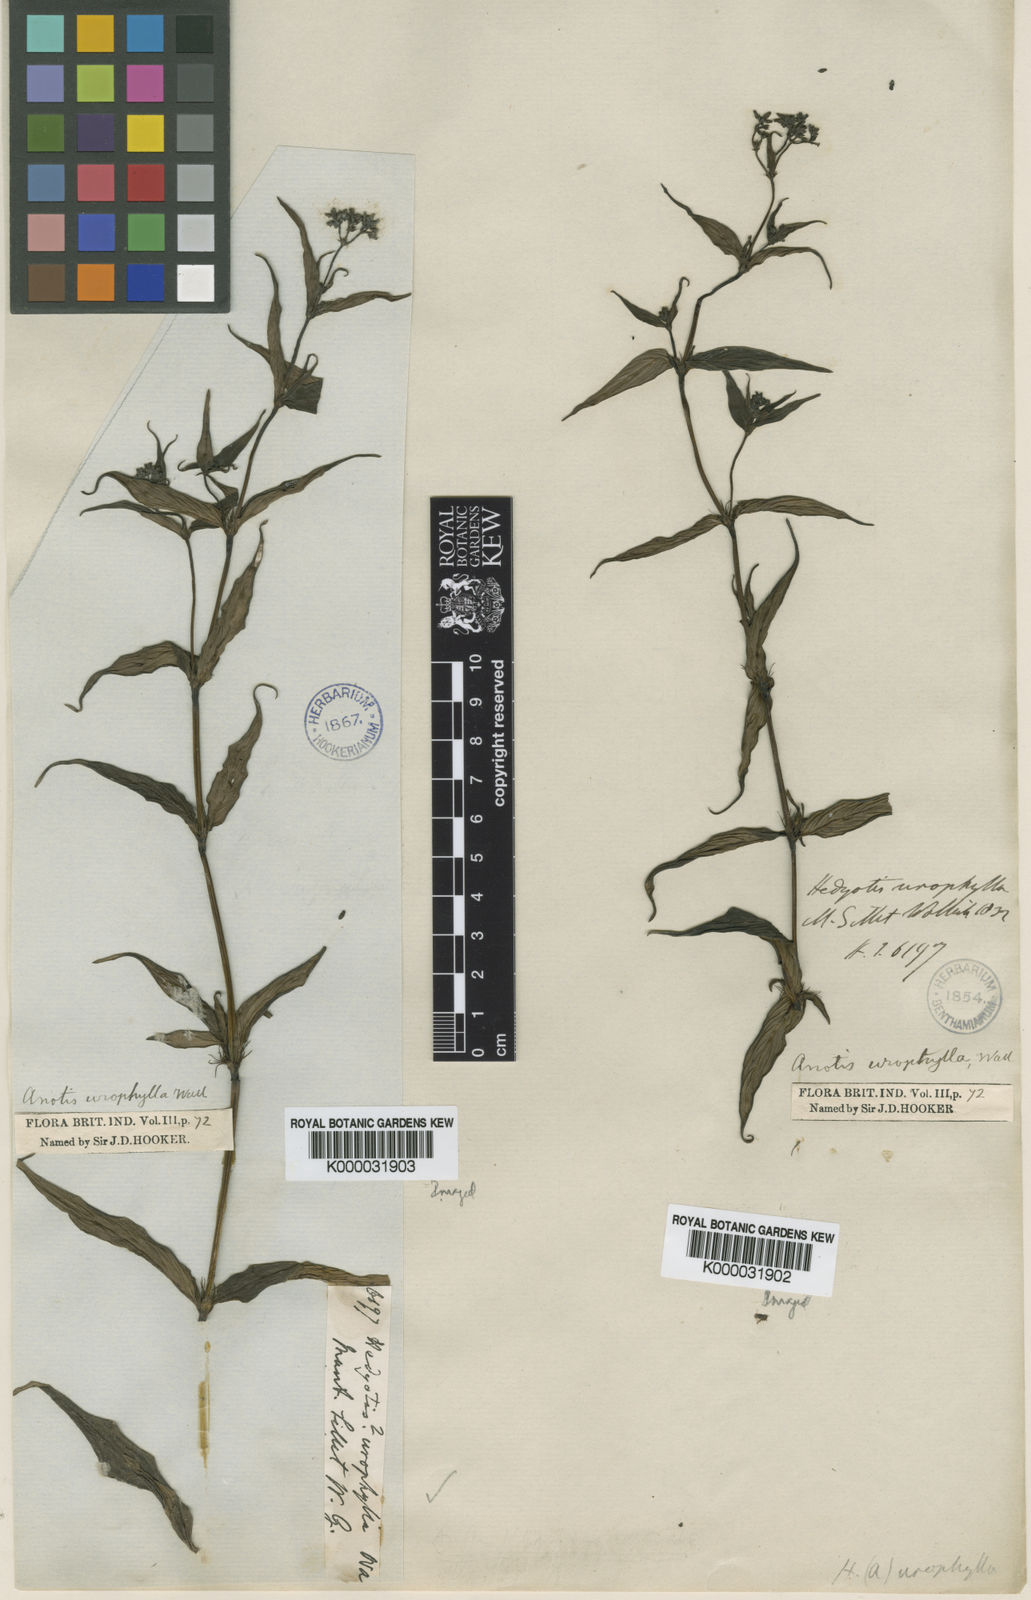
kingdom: Plantae
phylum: Tracheophyta
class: Magnoliopsida
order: Gentianales
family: Rubiaceae
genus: Neanotis
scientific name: Neanotis decipiens
